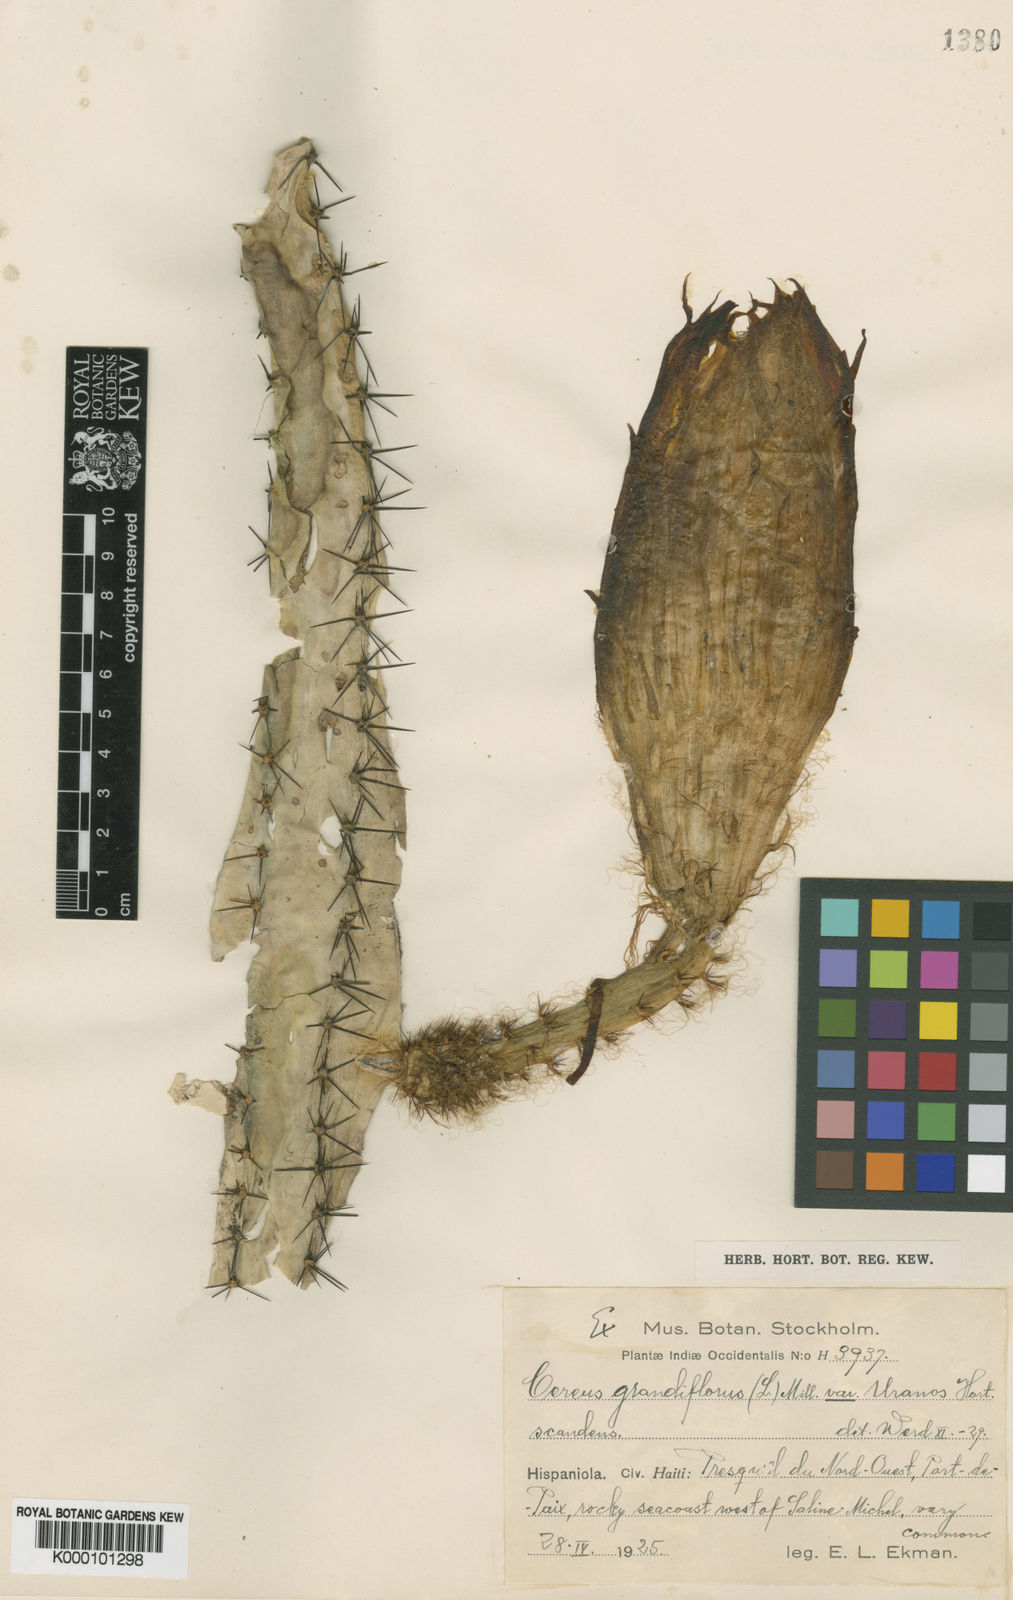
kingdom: Plantae
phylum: Tracheophyta
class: Magnoliopsida
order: Caryophyllales
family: Cactaceae
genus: Selenicereus
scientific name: Selenicereus grandiflorus
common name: Queen of the night
